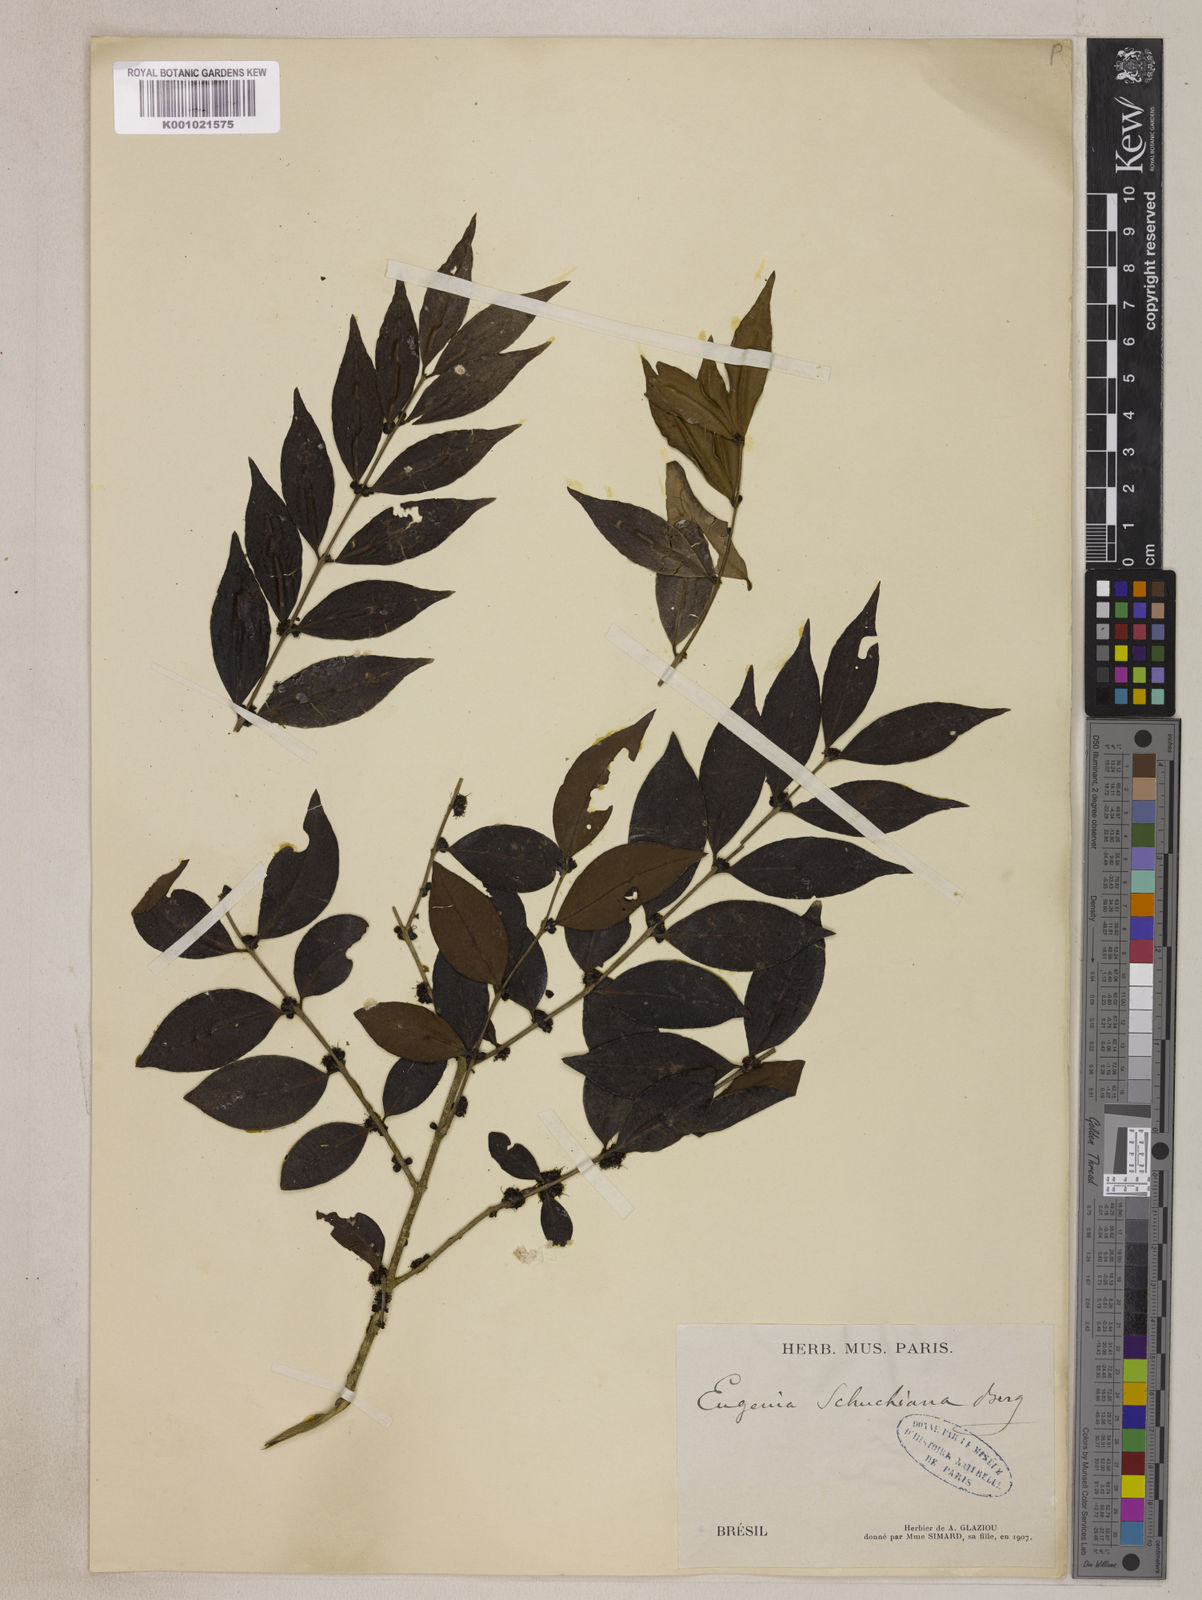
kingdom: Plantae
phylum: Tracheophyta
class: Magnoliopsida
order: Myrtales
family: Myrtaceae
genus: Eugenia
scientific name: Eugenia verticillata
